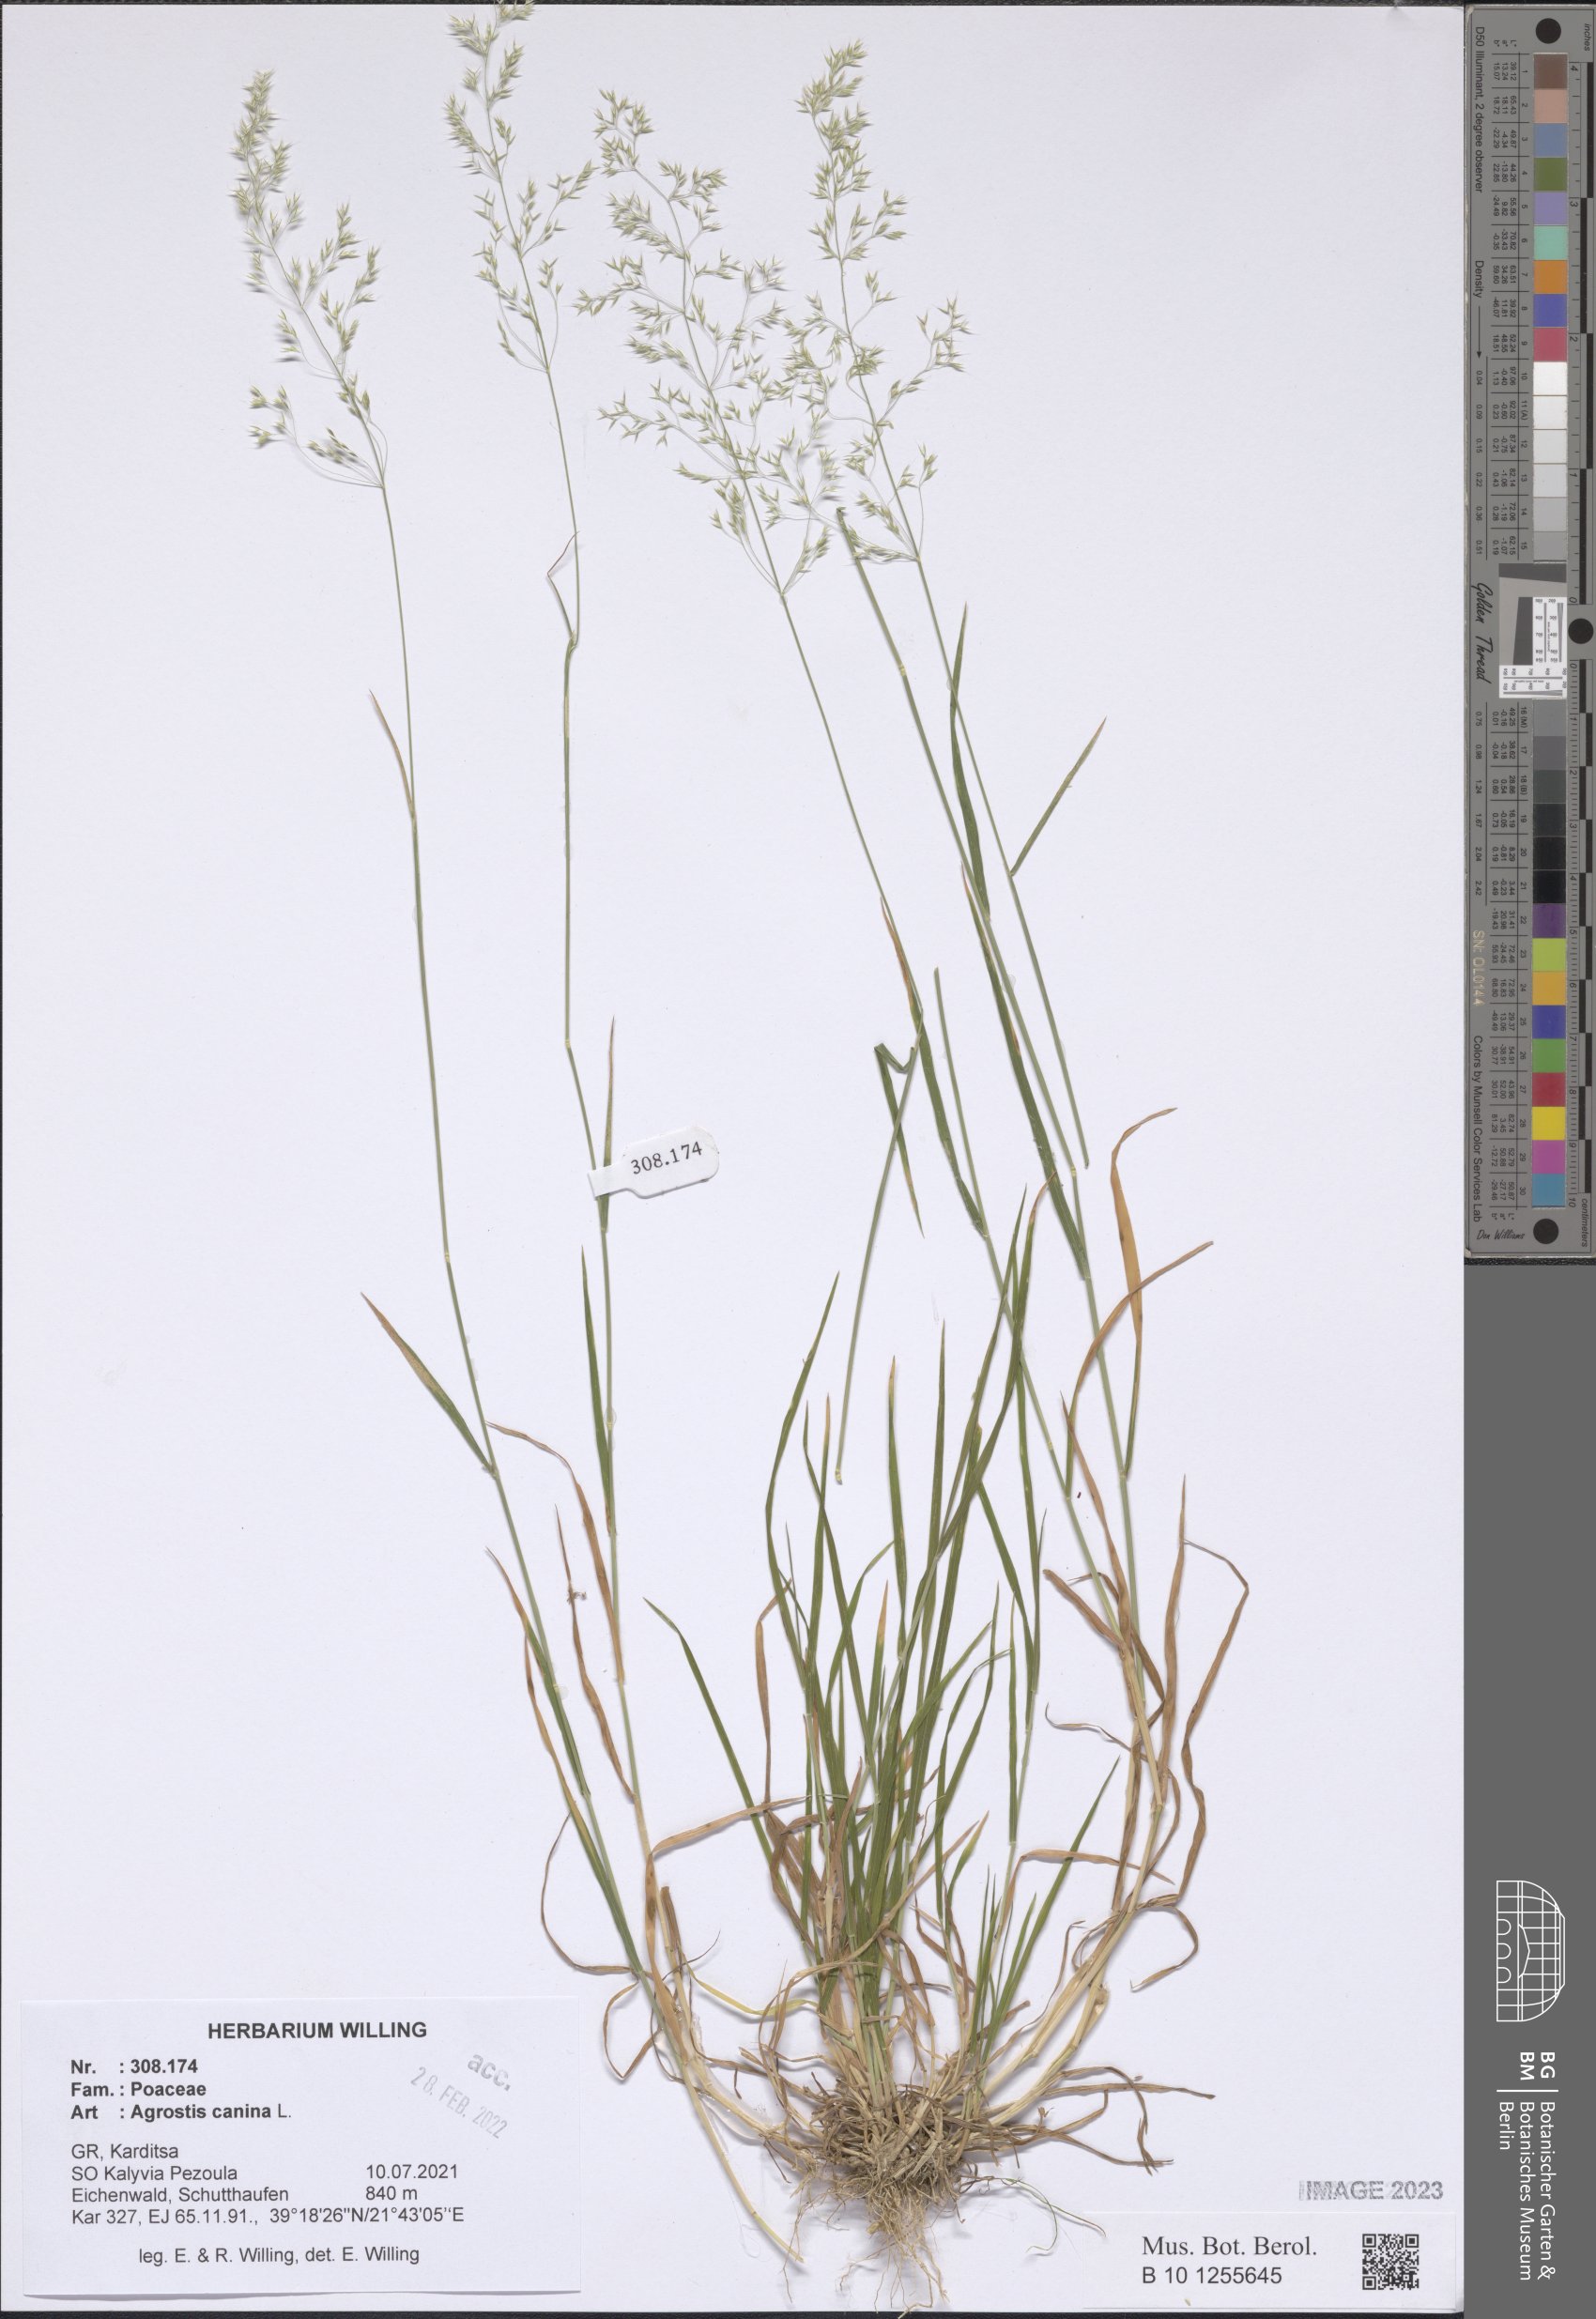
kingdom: Plantae
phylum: Tracheophyta
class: Liliopsida
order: Poales
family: Poaceae
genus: Agrostis
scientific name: Agrostis canina
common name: Velvet bent
